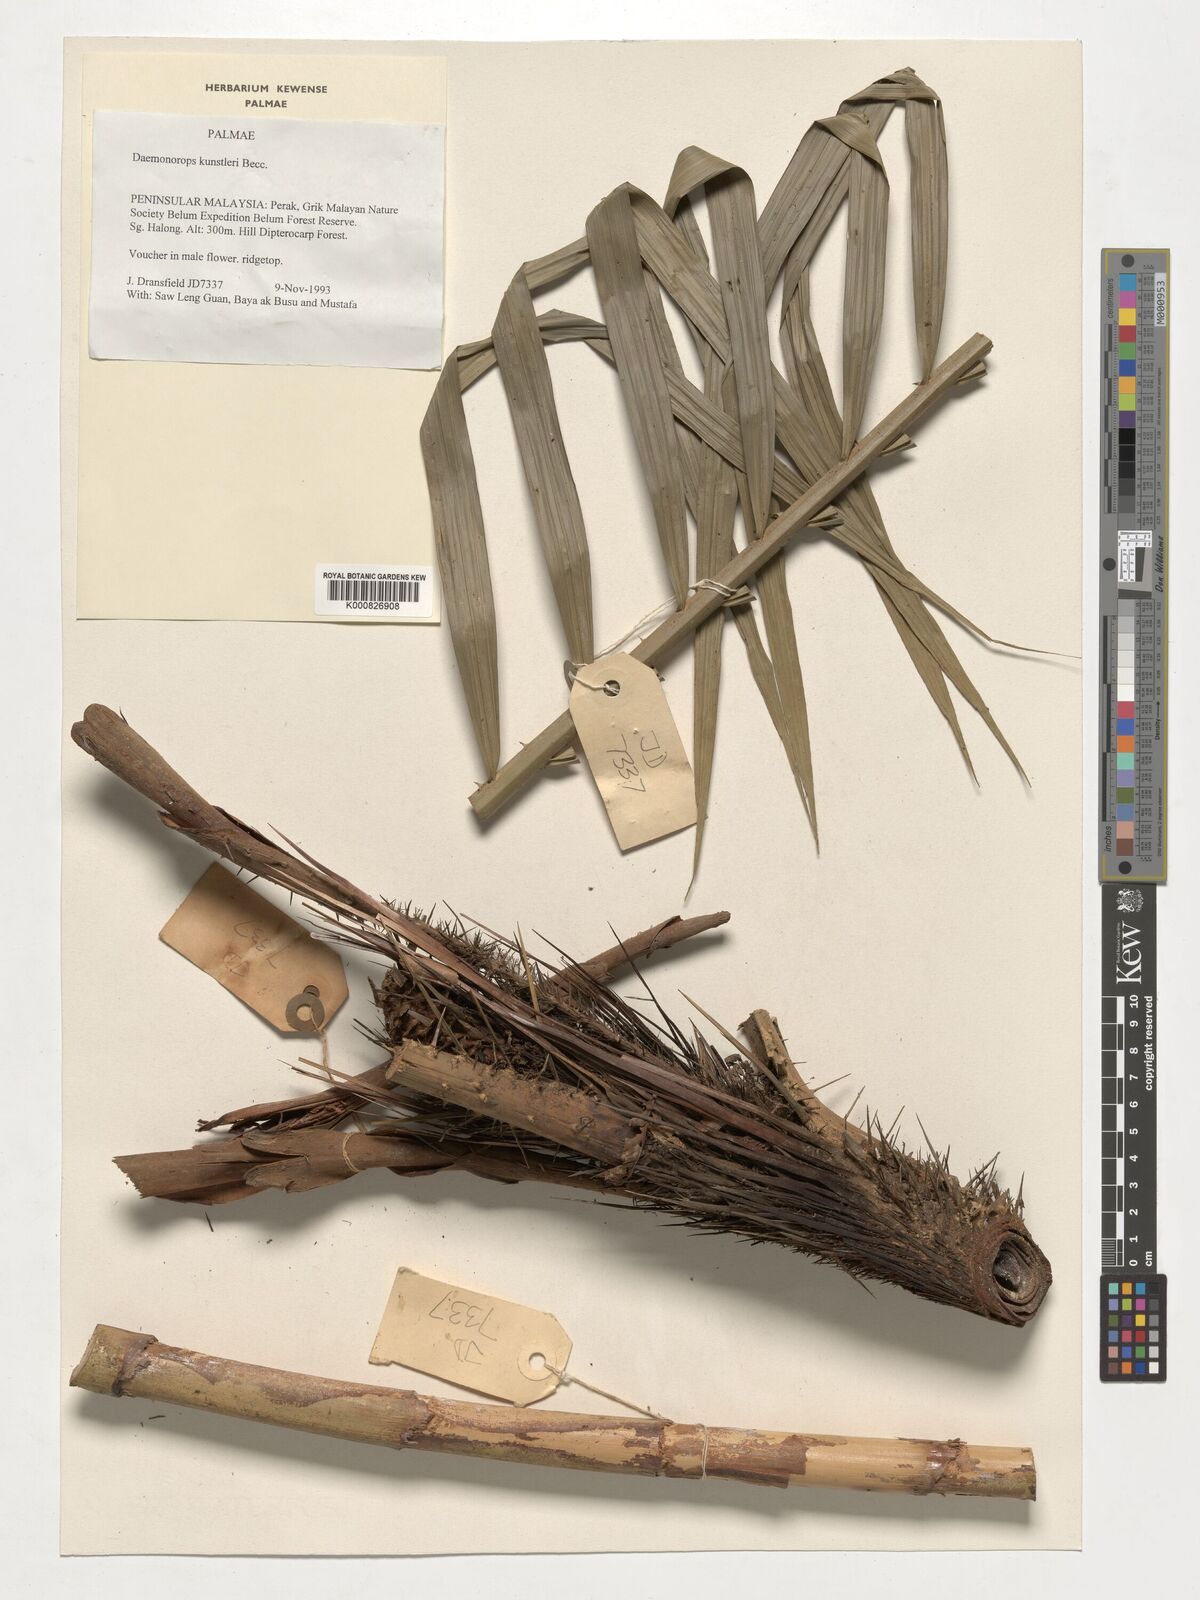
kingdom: Plantae
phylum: Tracheophyta
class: Liliopsida
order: Arecales
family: Arecaceae
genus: Calamus
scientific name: Calamus kunstleri
